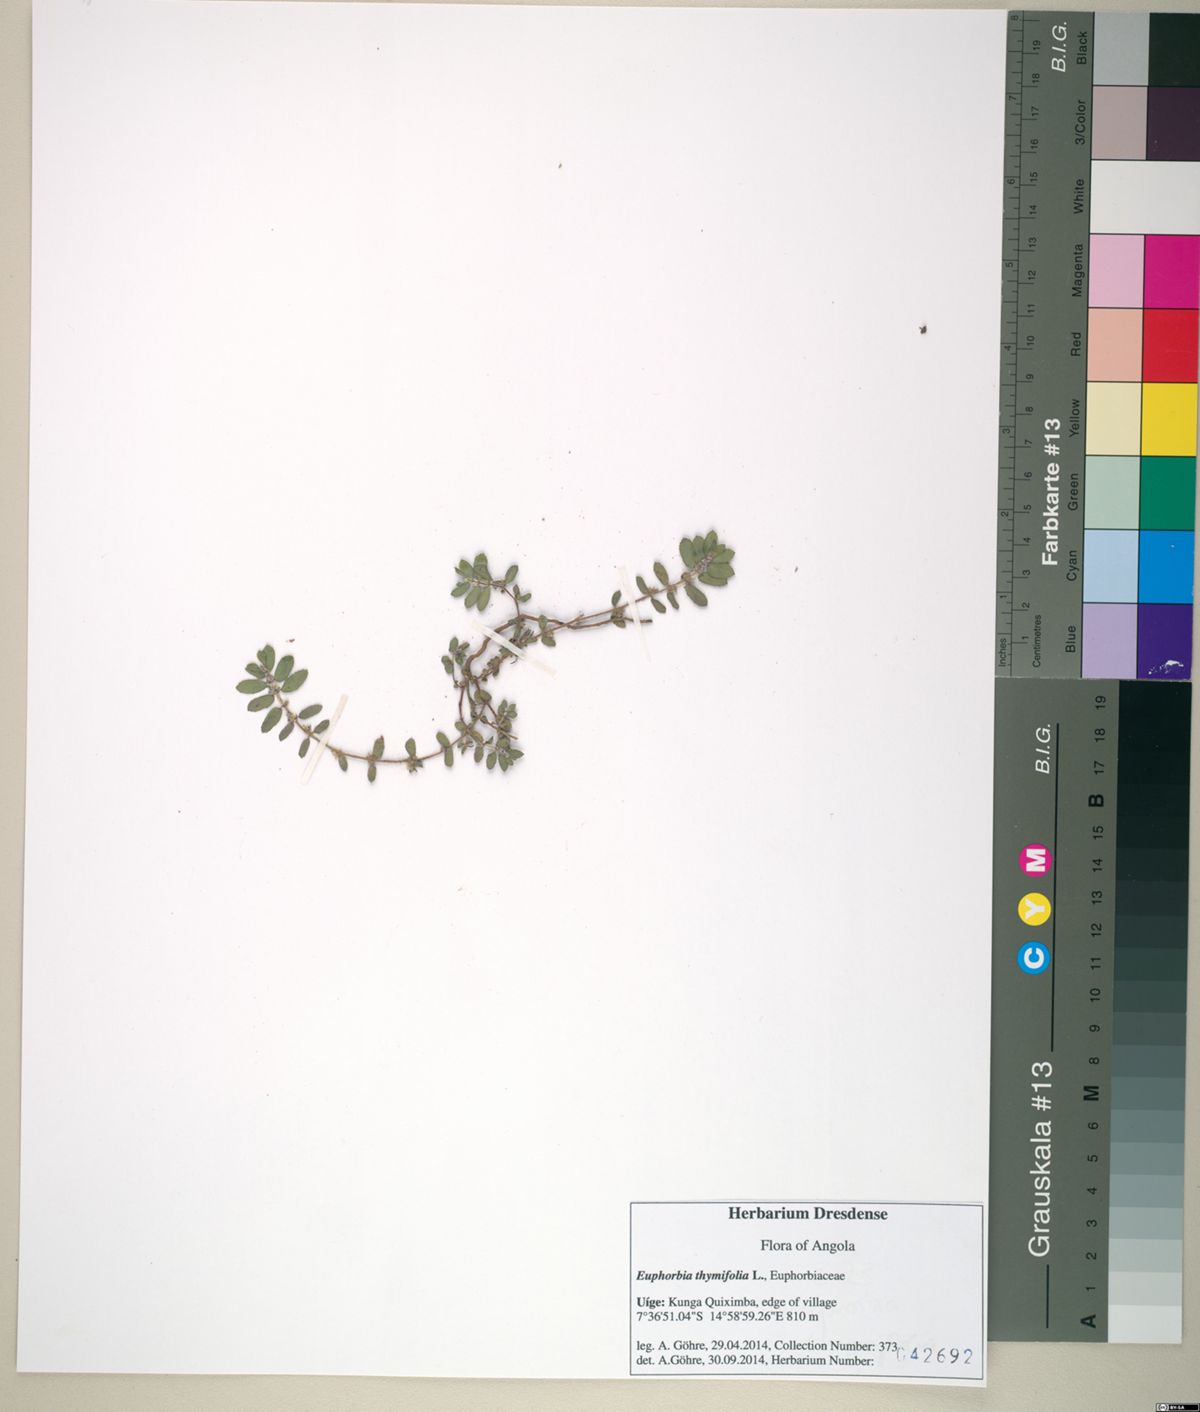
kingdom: Plantae
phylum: Tracheophyta
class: Magnoliopsida
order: Malpighiales
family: Euphorbiaceae
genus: Euphorbia
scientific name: Euphorbia thymifolia
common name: Gulf sandmat
